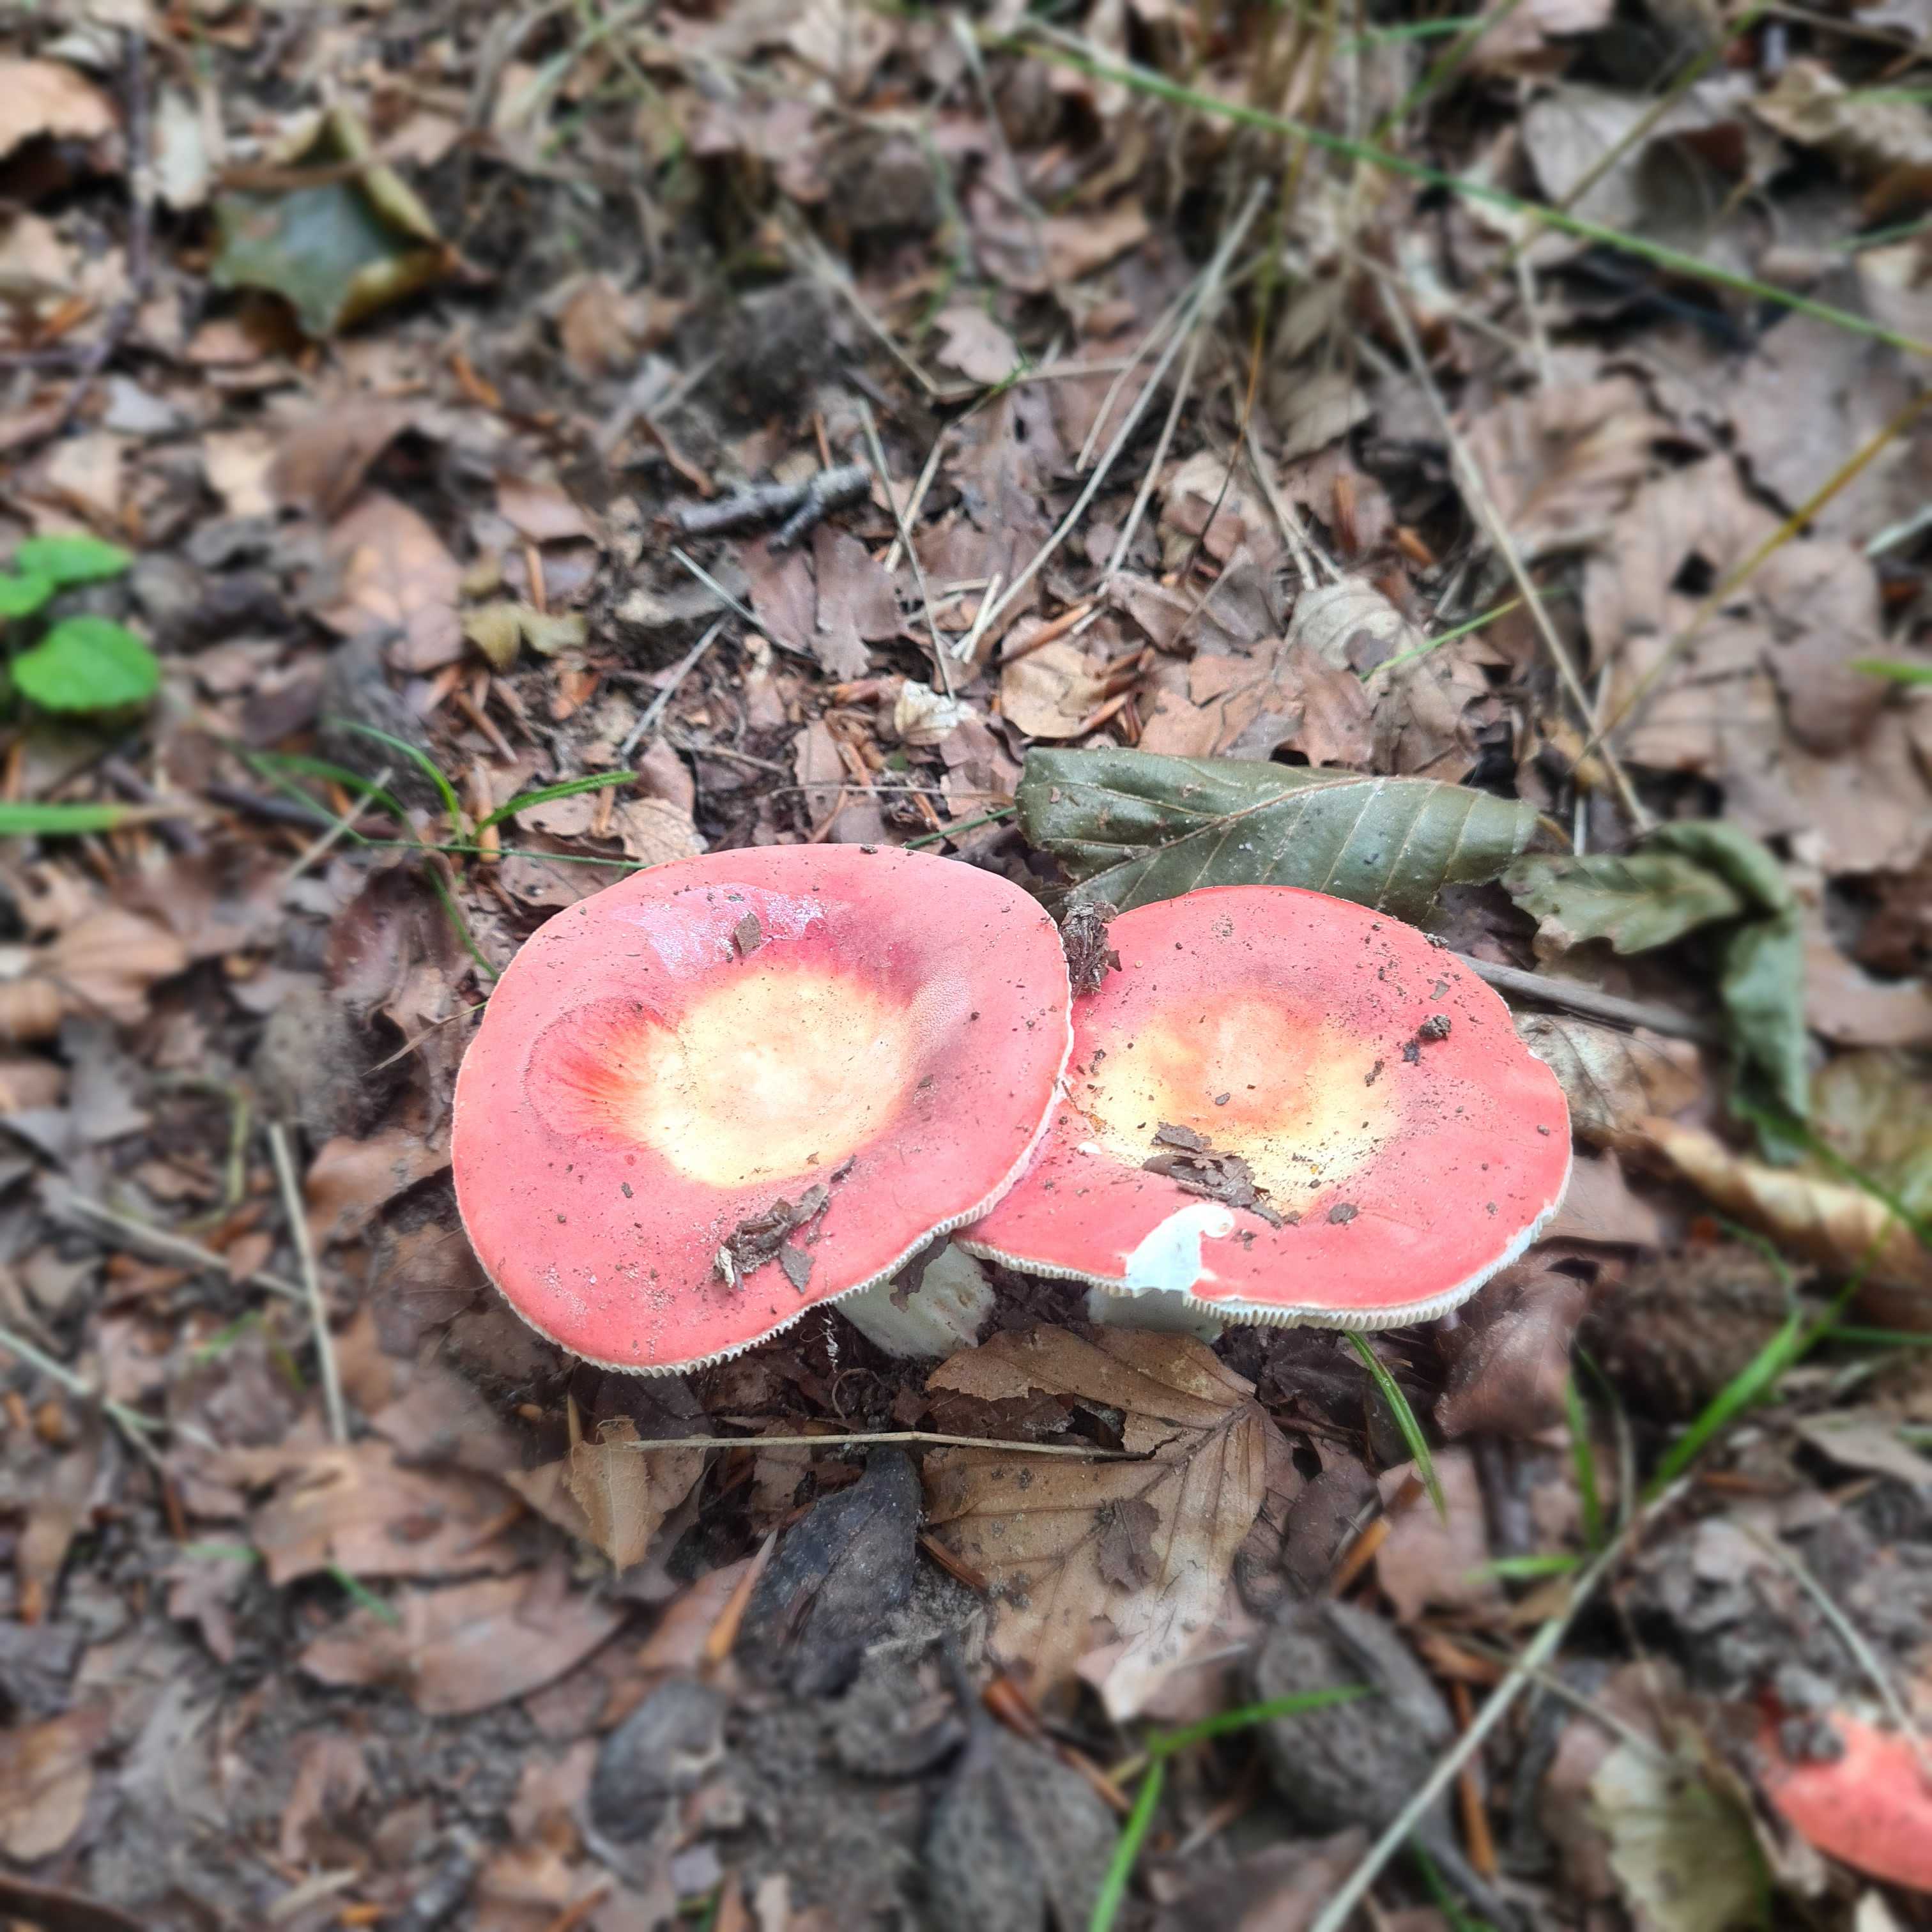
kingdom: Fungi
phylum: Basidiomycota
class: Agaricomycetes
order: Russulales
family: Russulaceae
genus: Russula
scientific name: Russula
